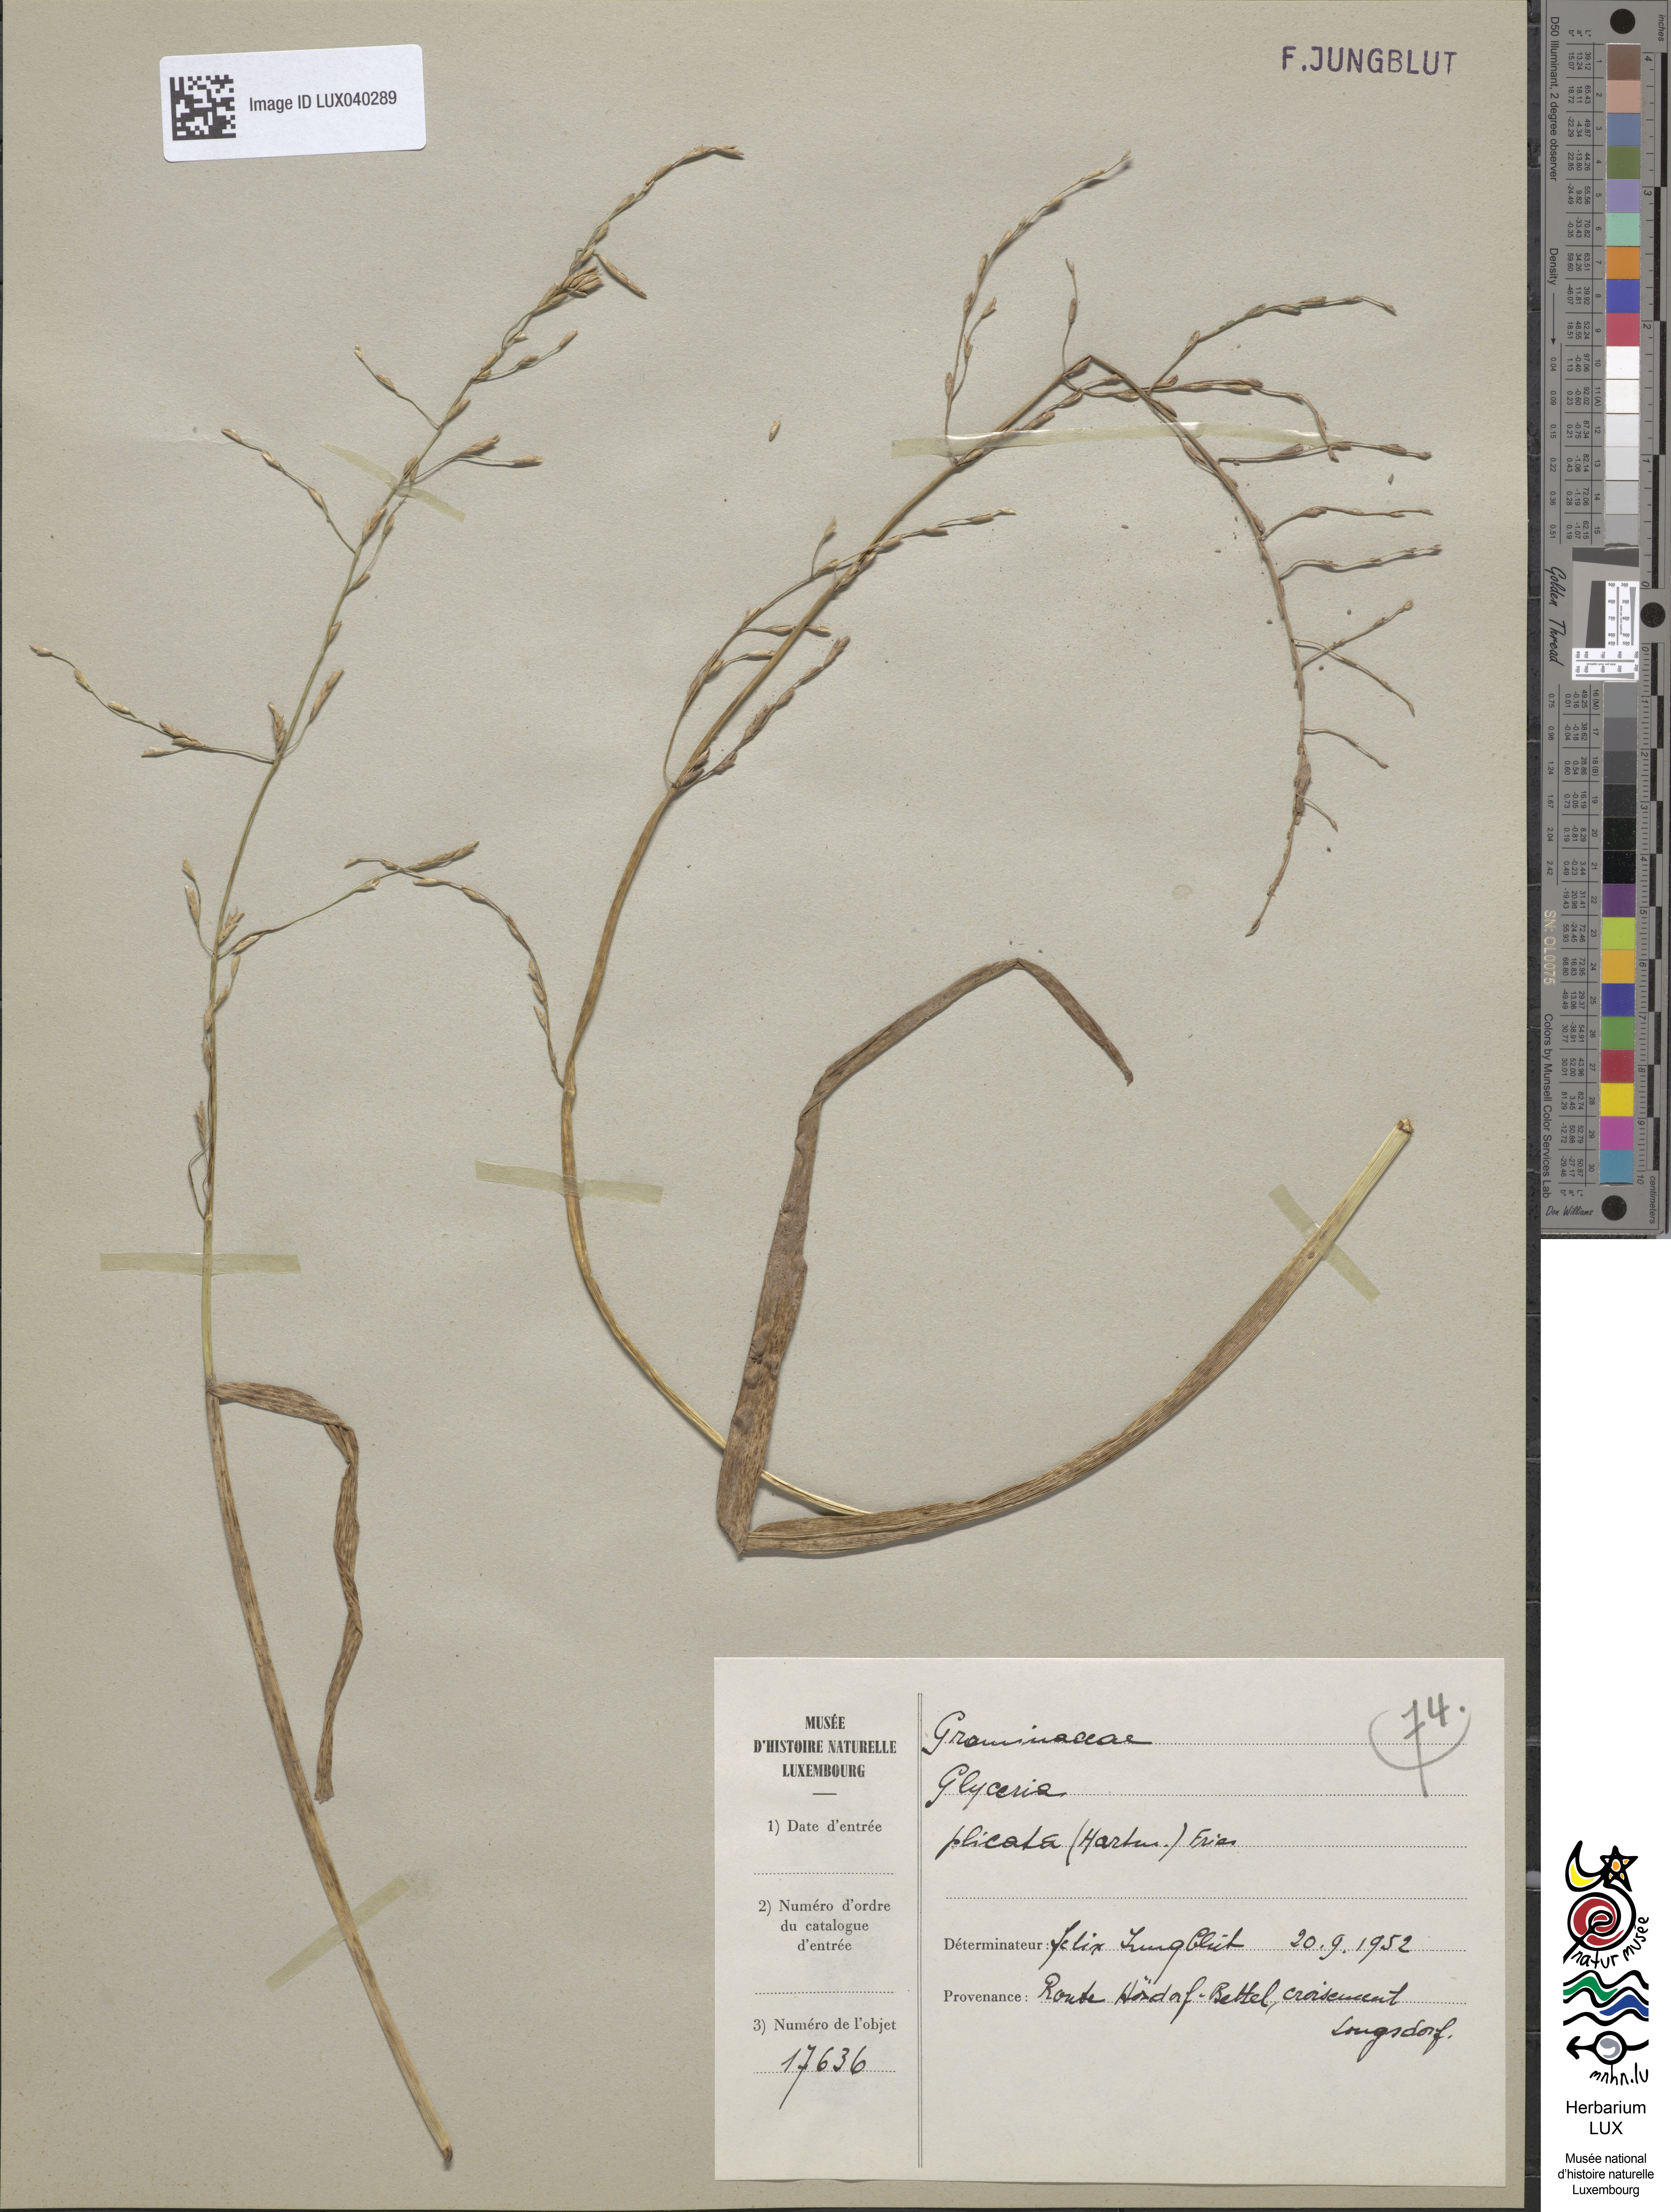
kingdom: Plantae
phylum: Tracheophyta
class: Liliopsida
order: Poales
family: Poaceae
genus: Glyceria
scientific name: Glyceria notata
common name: Plicate sweet-grass
